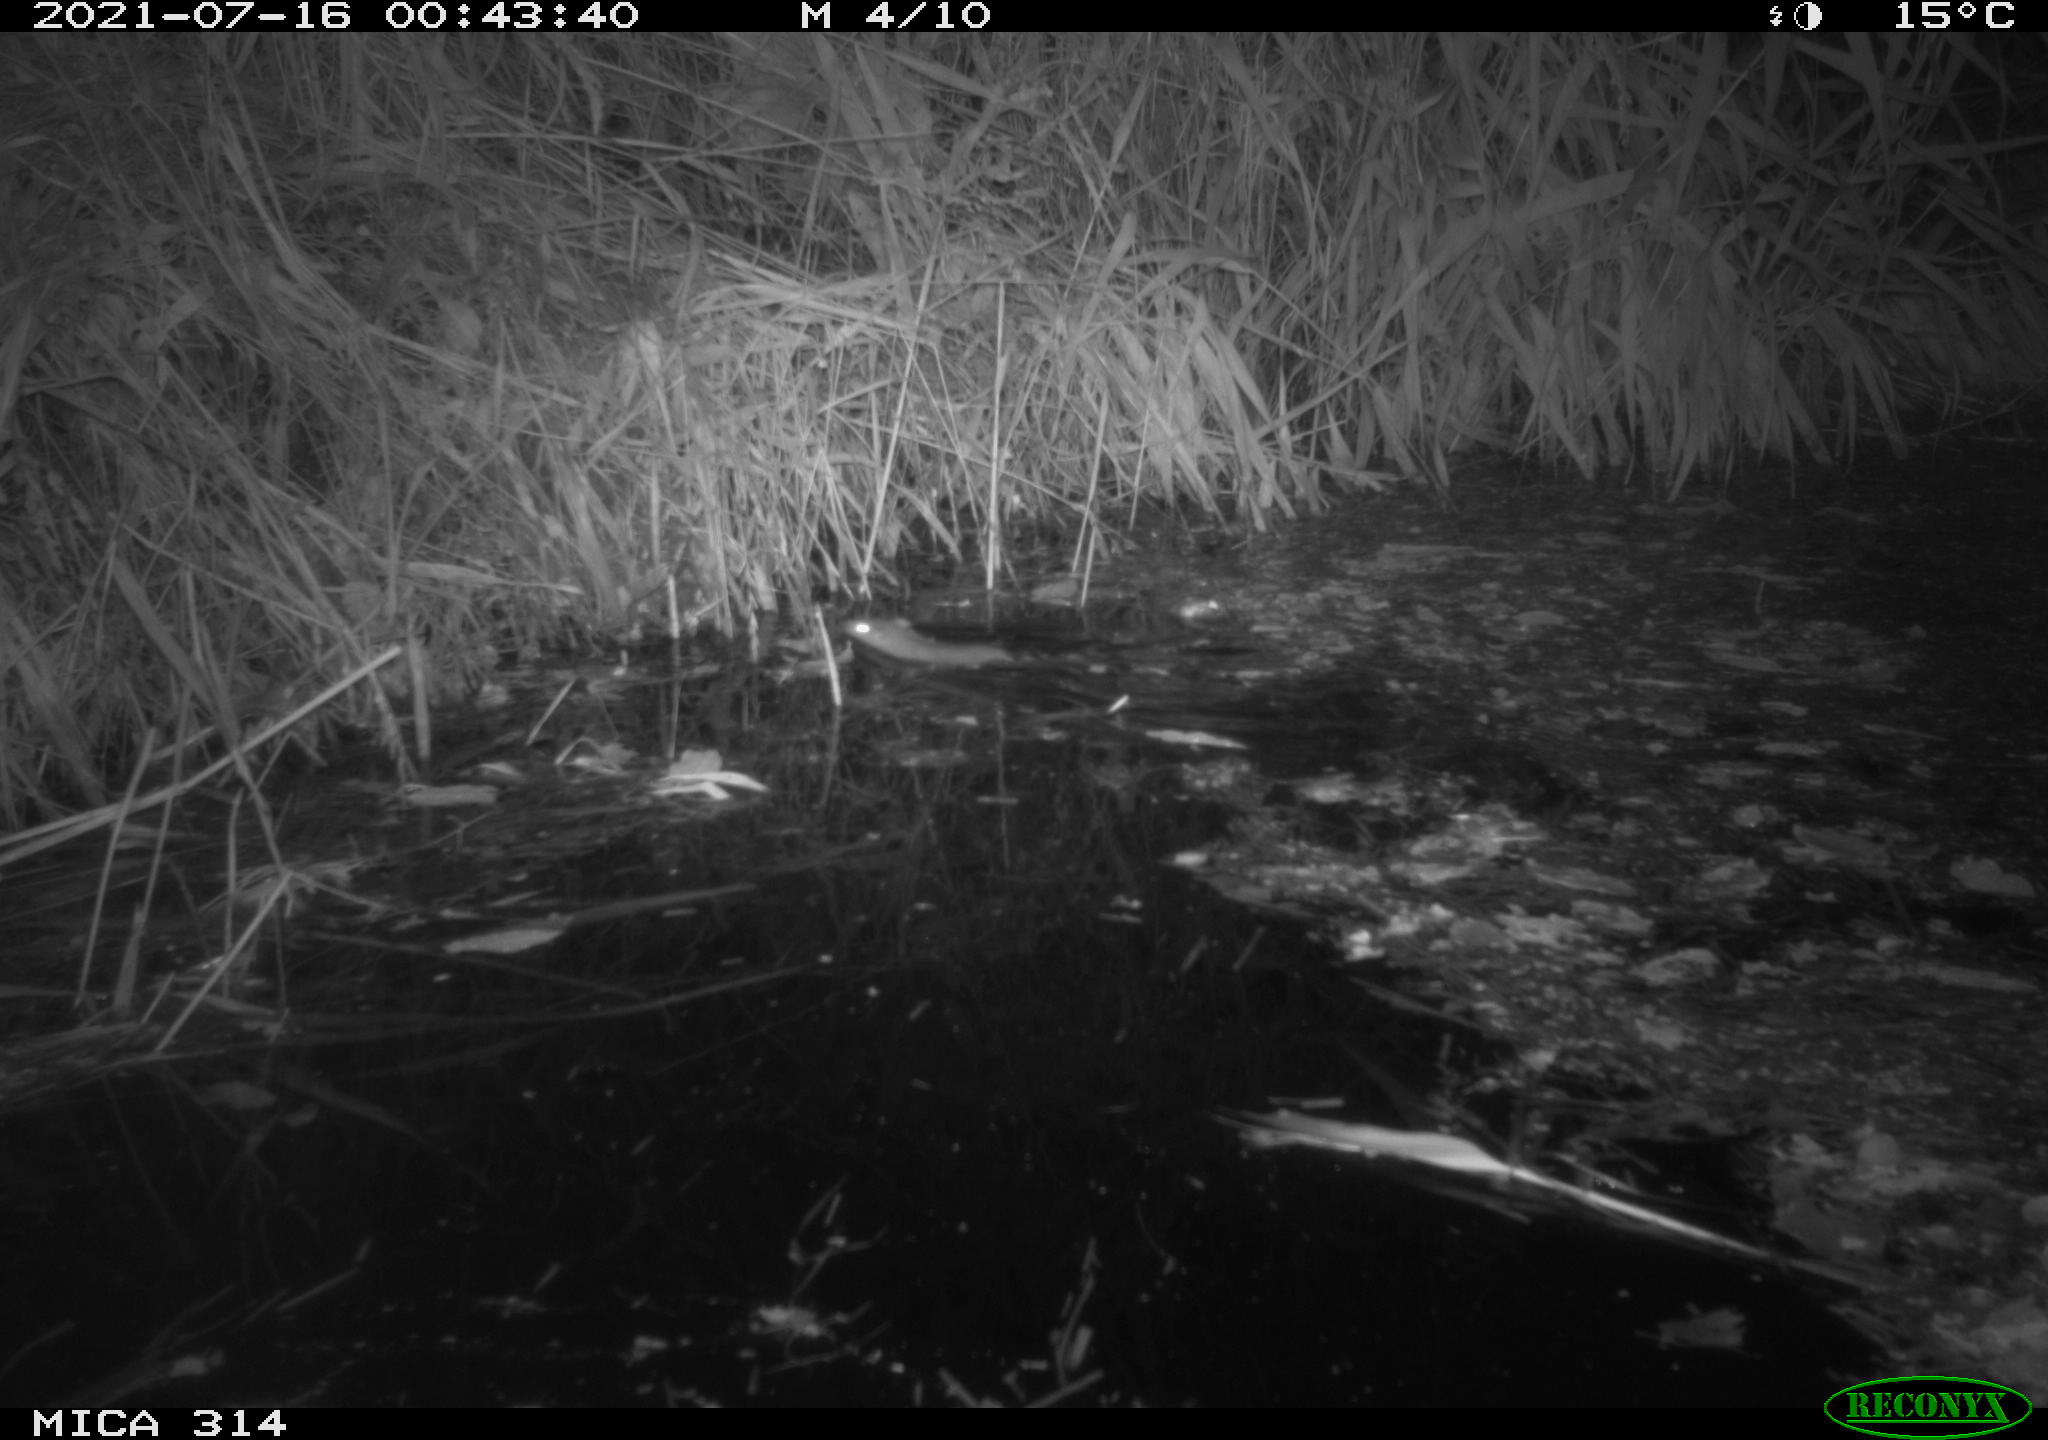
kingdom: Animalia
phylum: Chordata
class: Mammalia
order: Rodentia
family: Muridae
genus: Rattus
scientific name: Rattus norvegicus
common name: Brown rat
